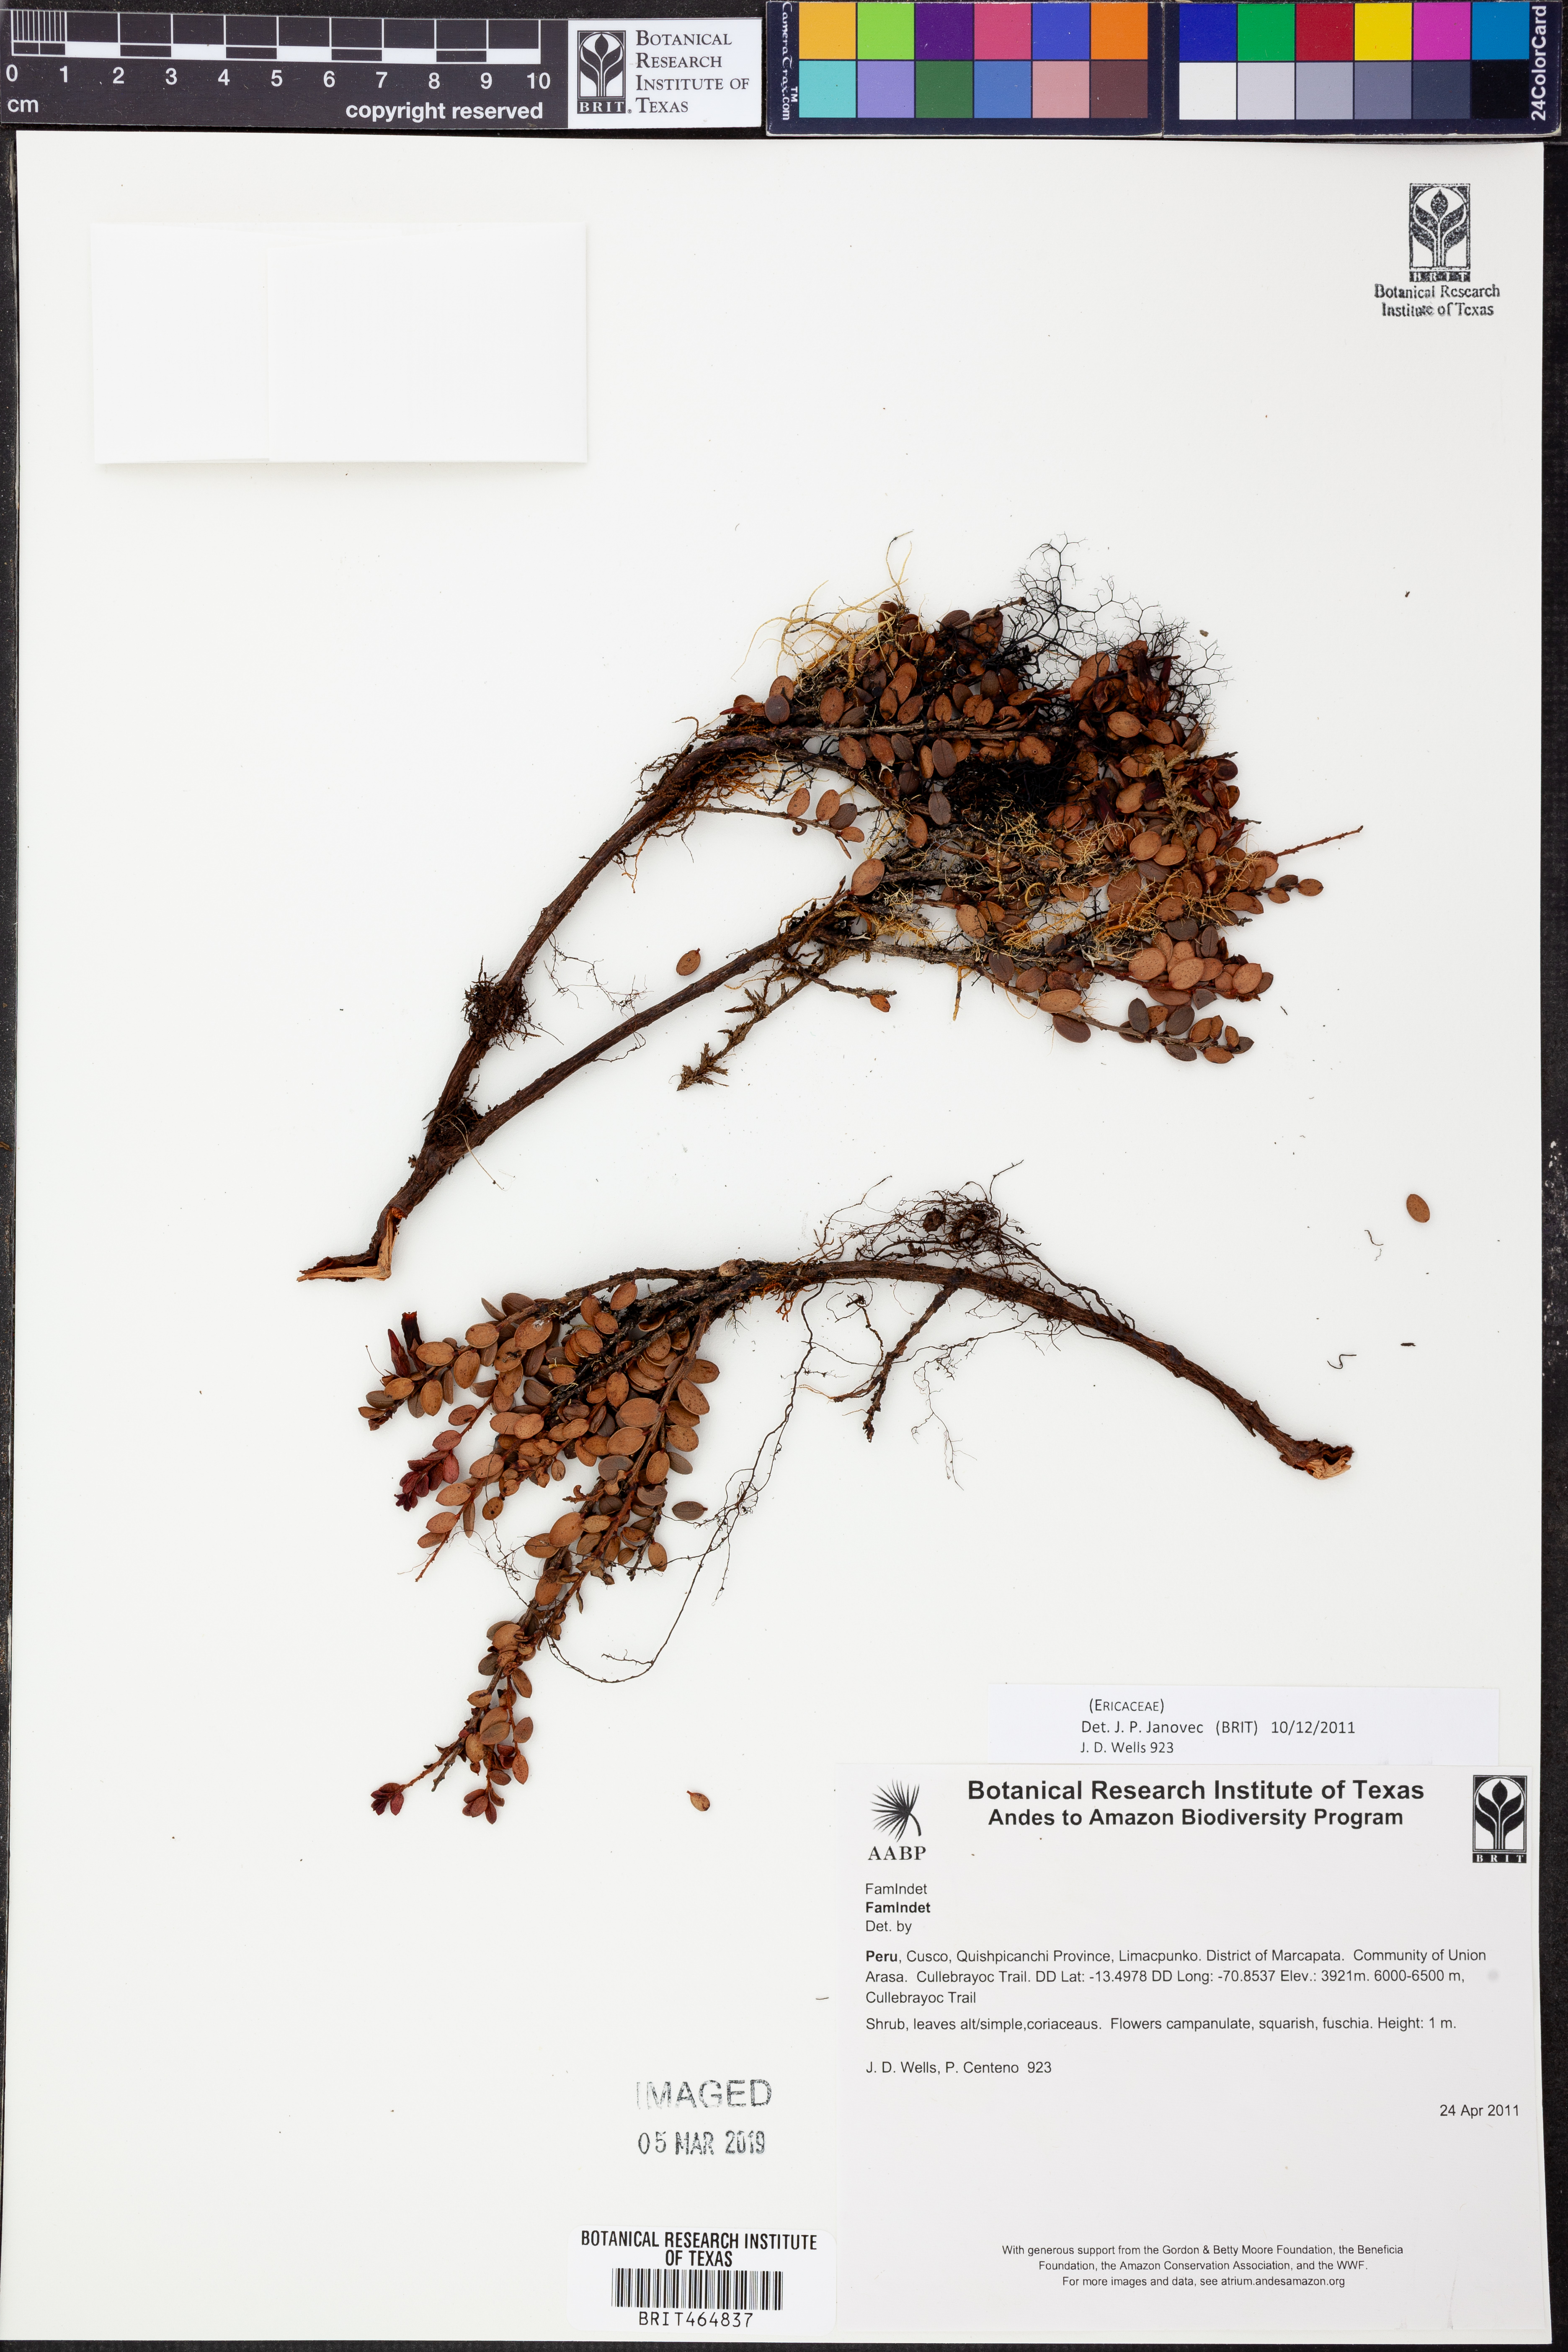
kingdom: Plantae
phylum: Tracheophyta
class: Magnoliopsida
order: Ericales
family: Ericaceae
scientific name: Ericaceae
